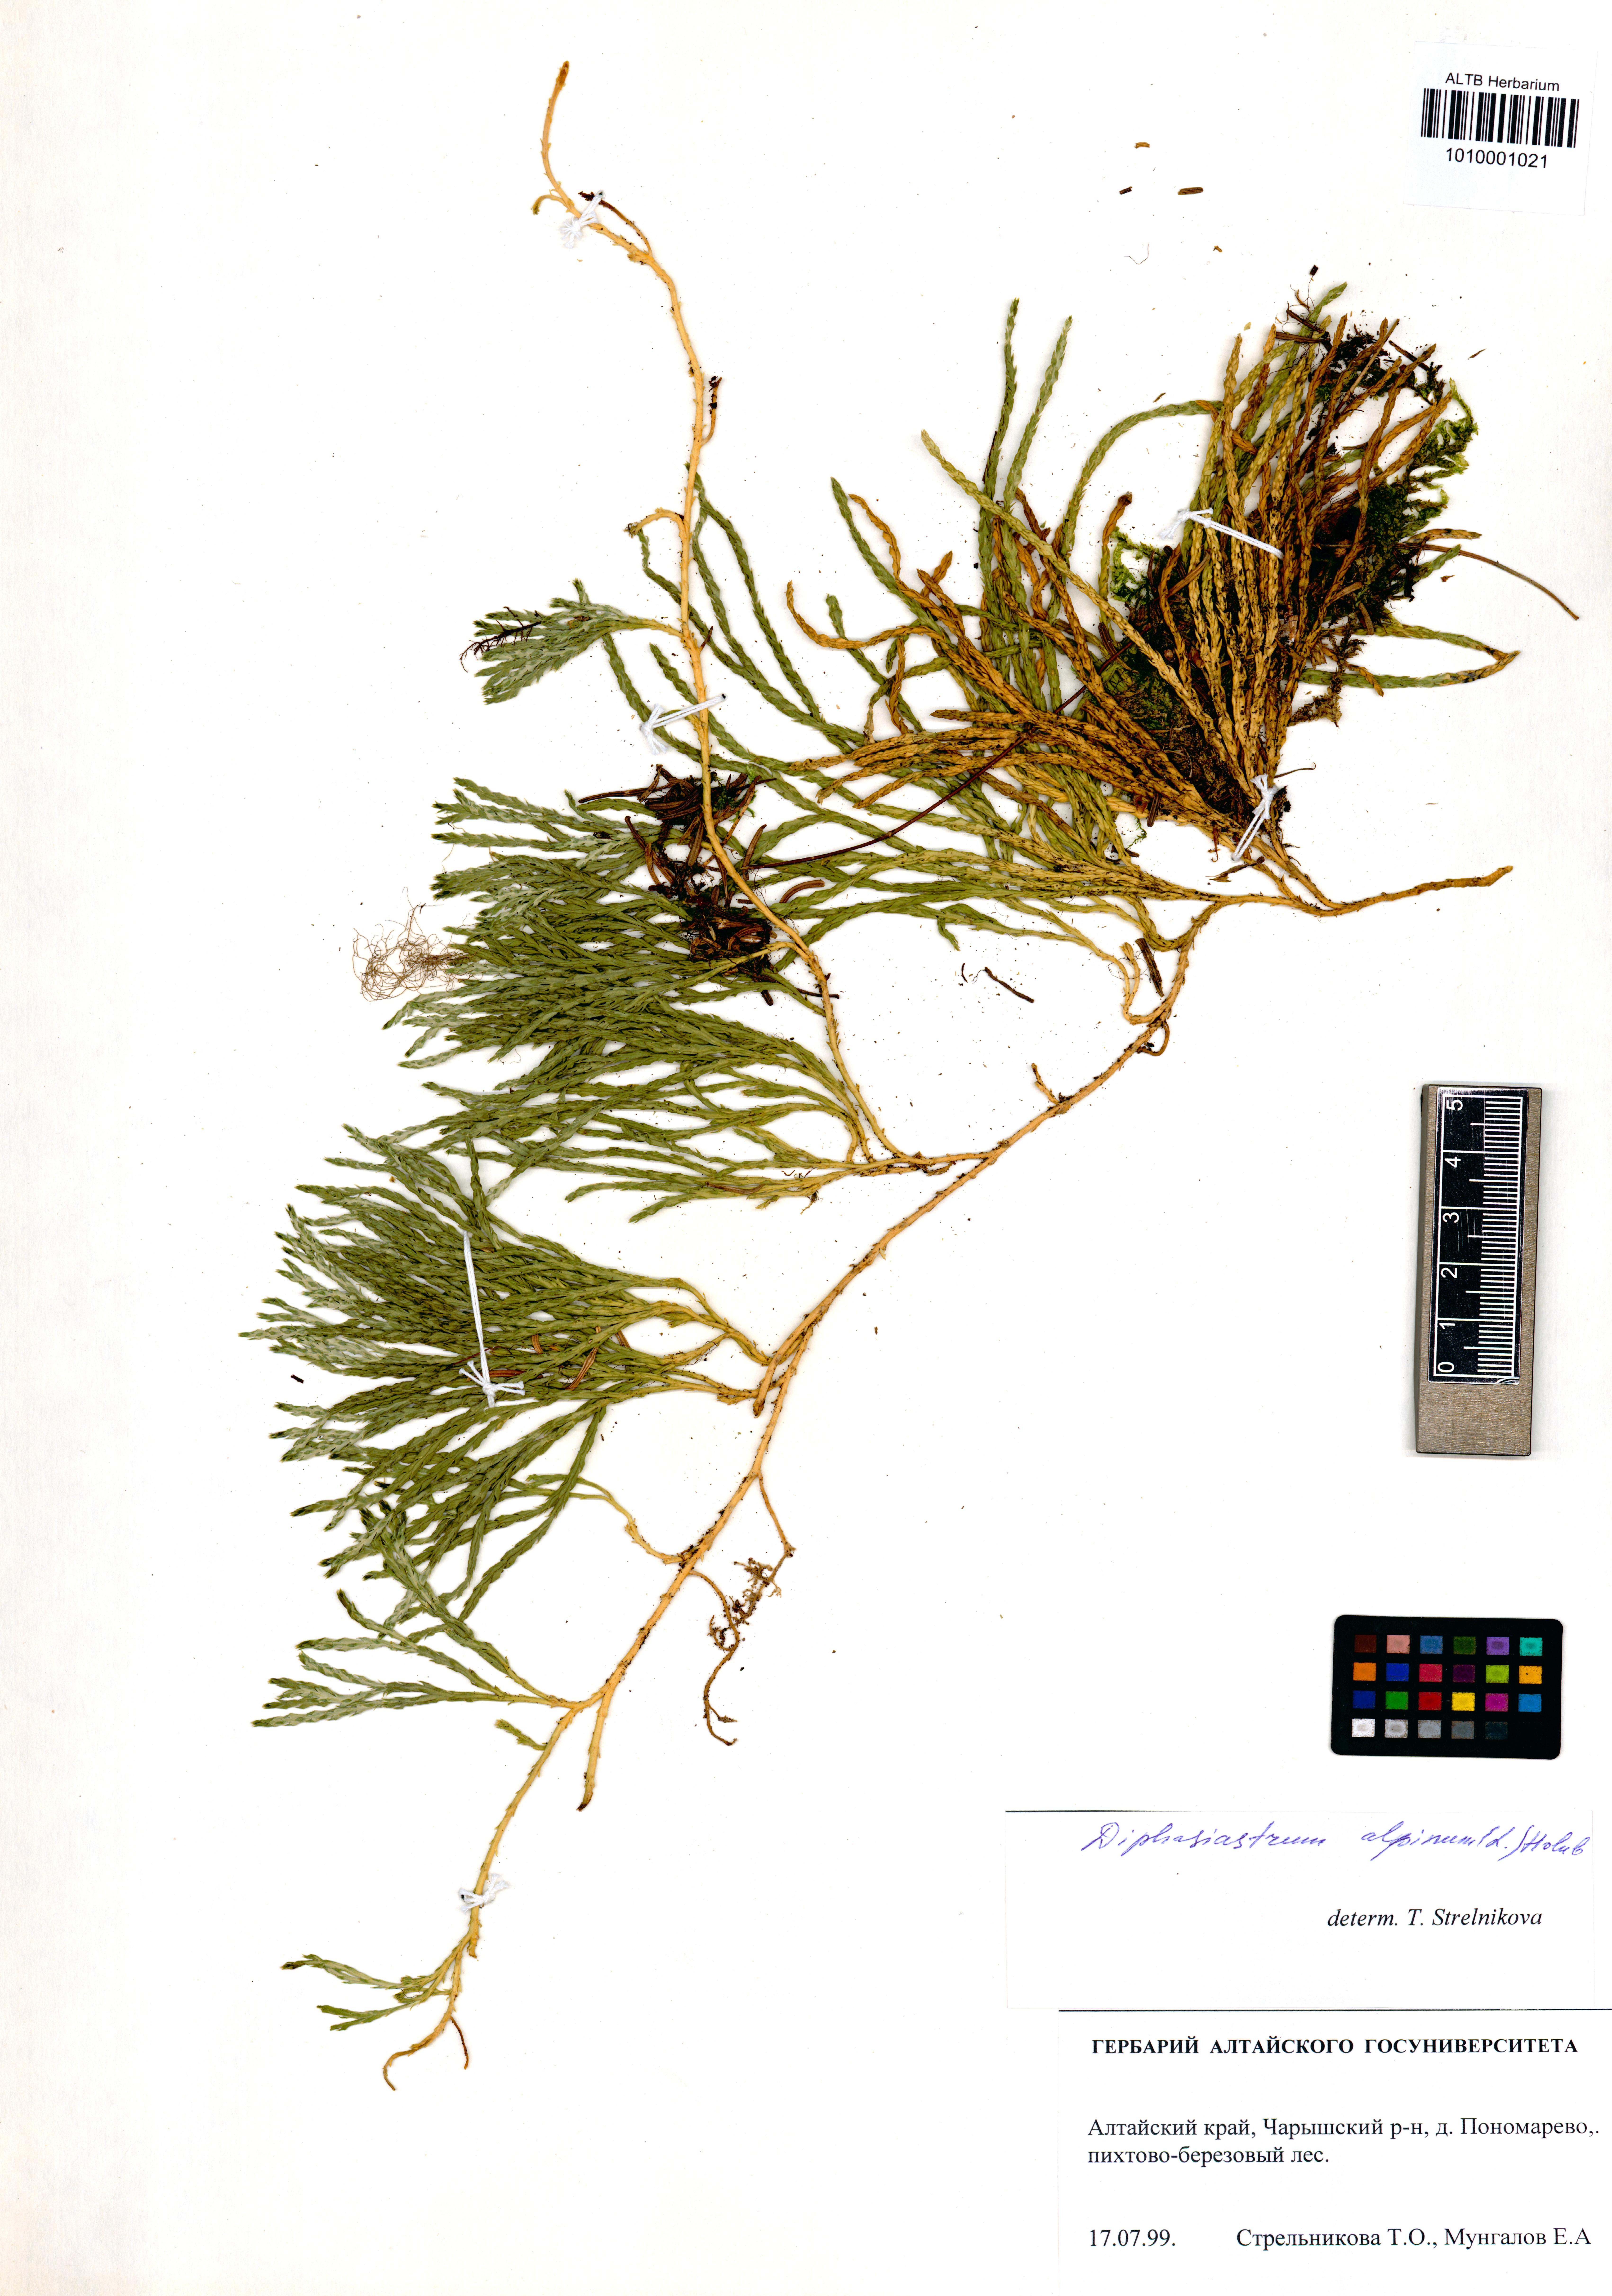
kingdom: Plantae
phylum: Tracheophyta
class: Lycopodiopsida
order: Lycopodiales
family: Lycopodiaceae
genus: Diphasiastrum
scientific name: Diphasiastrum alpinum
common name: Alpine clubmoss
